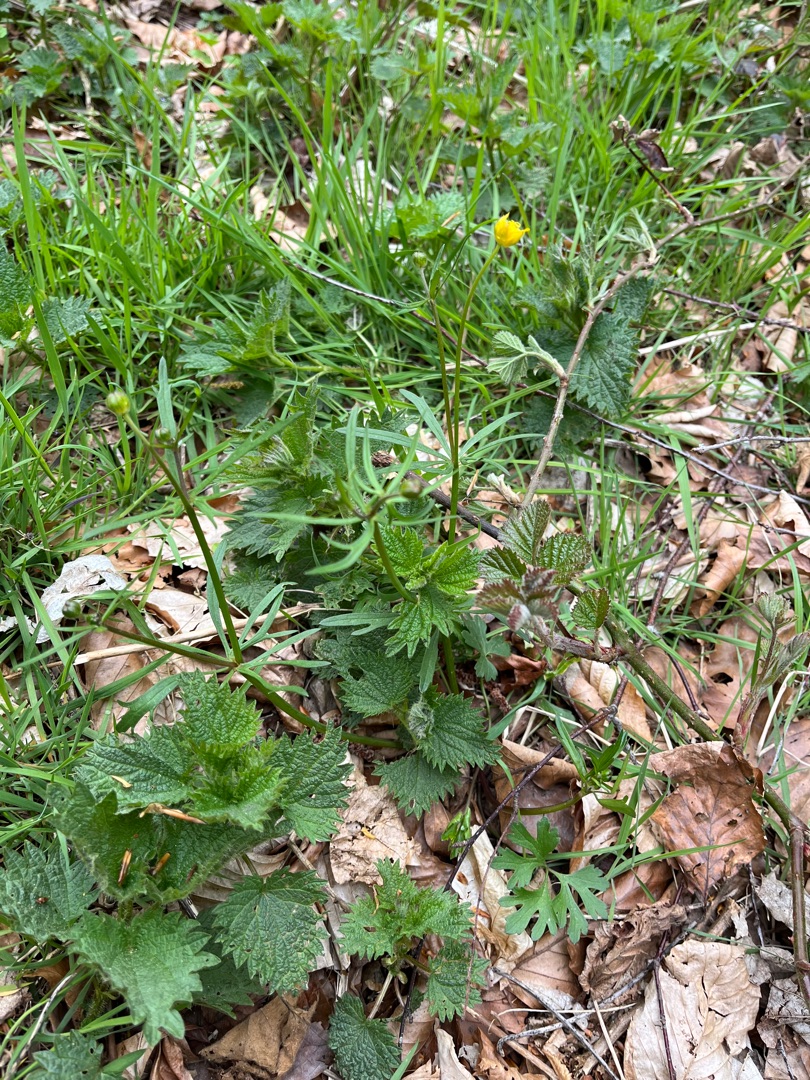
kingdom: Plantae
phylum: Tracheophyta
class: Magnoliopsida
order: Ranunculales
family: Ranunculaceae
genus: Ranunculus
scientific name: Ranunculus auricomus
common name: Nyrebladet ranunkel
